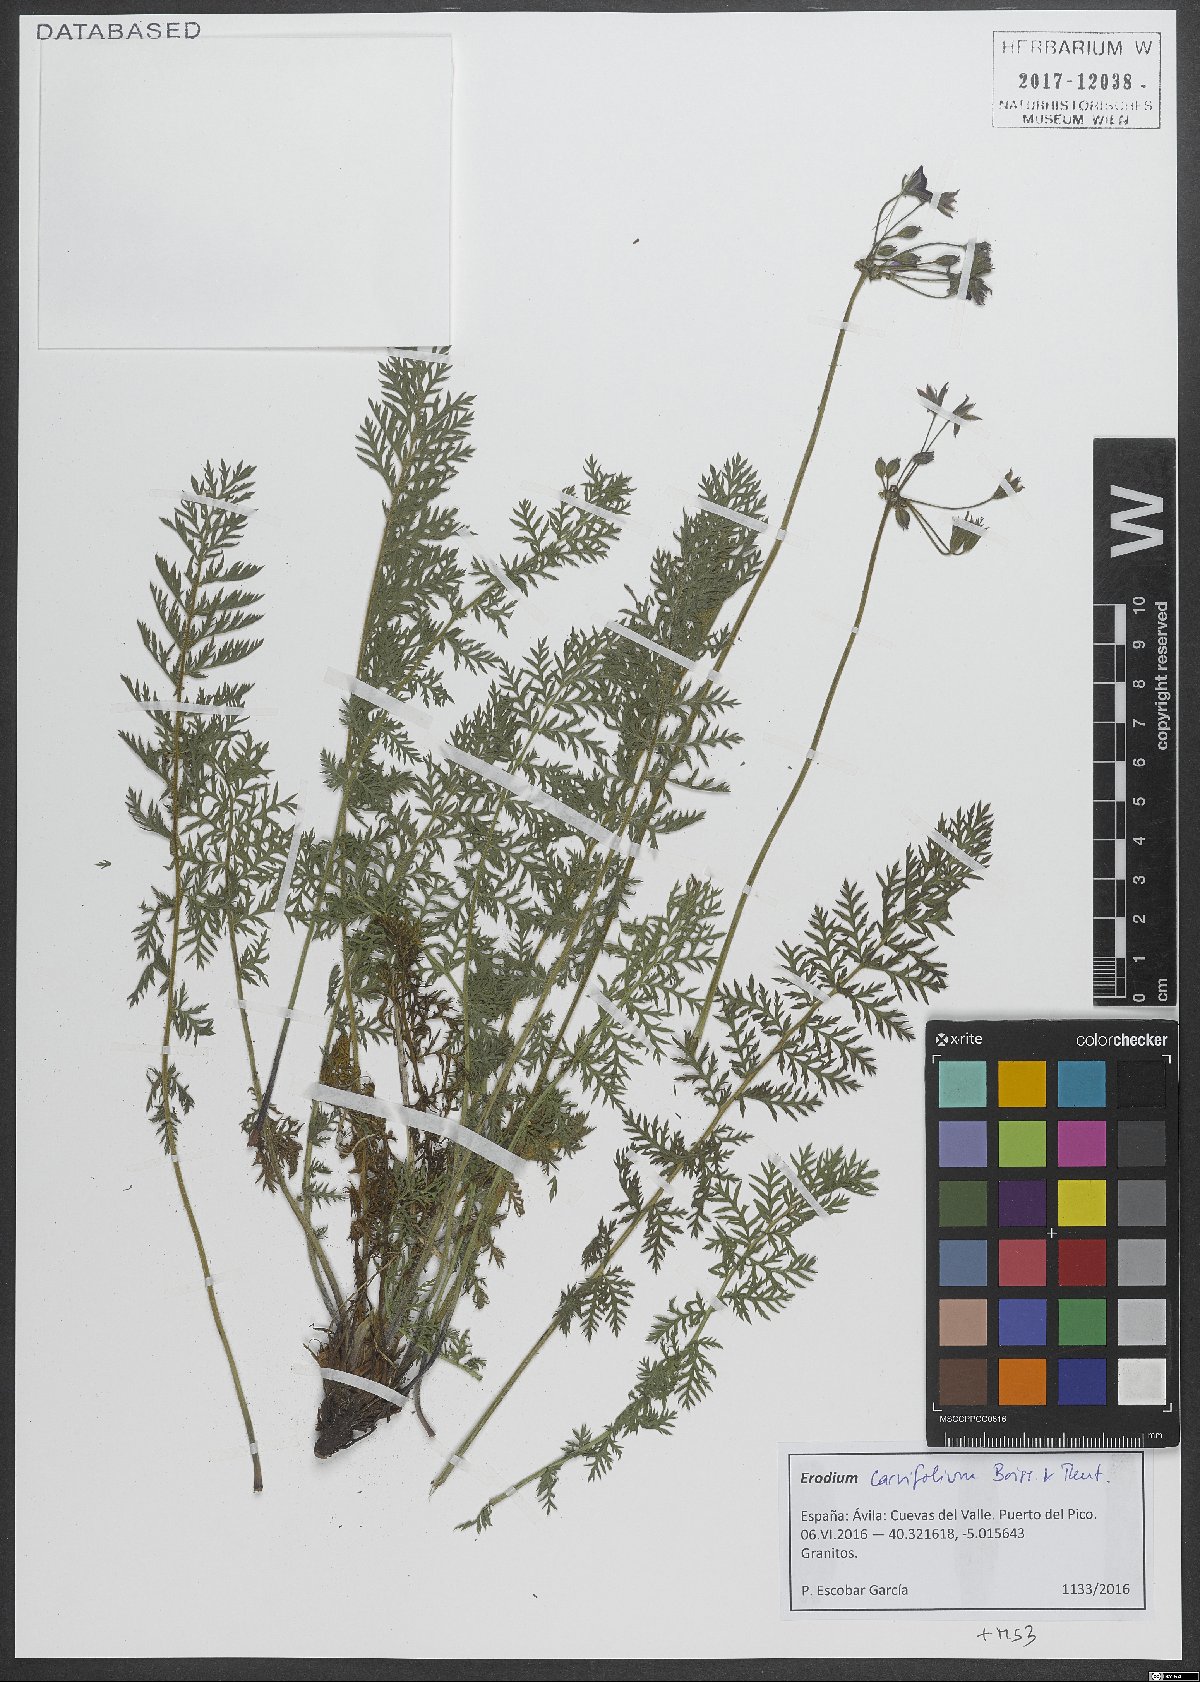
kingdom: Plantae
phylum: Tracheophyta
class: Magnoliopsida
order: Geraniales
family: Geraniaceae
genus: Erodium
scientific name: Erodium carvifolium
